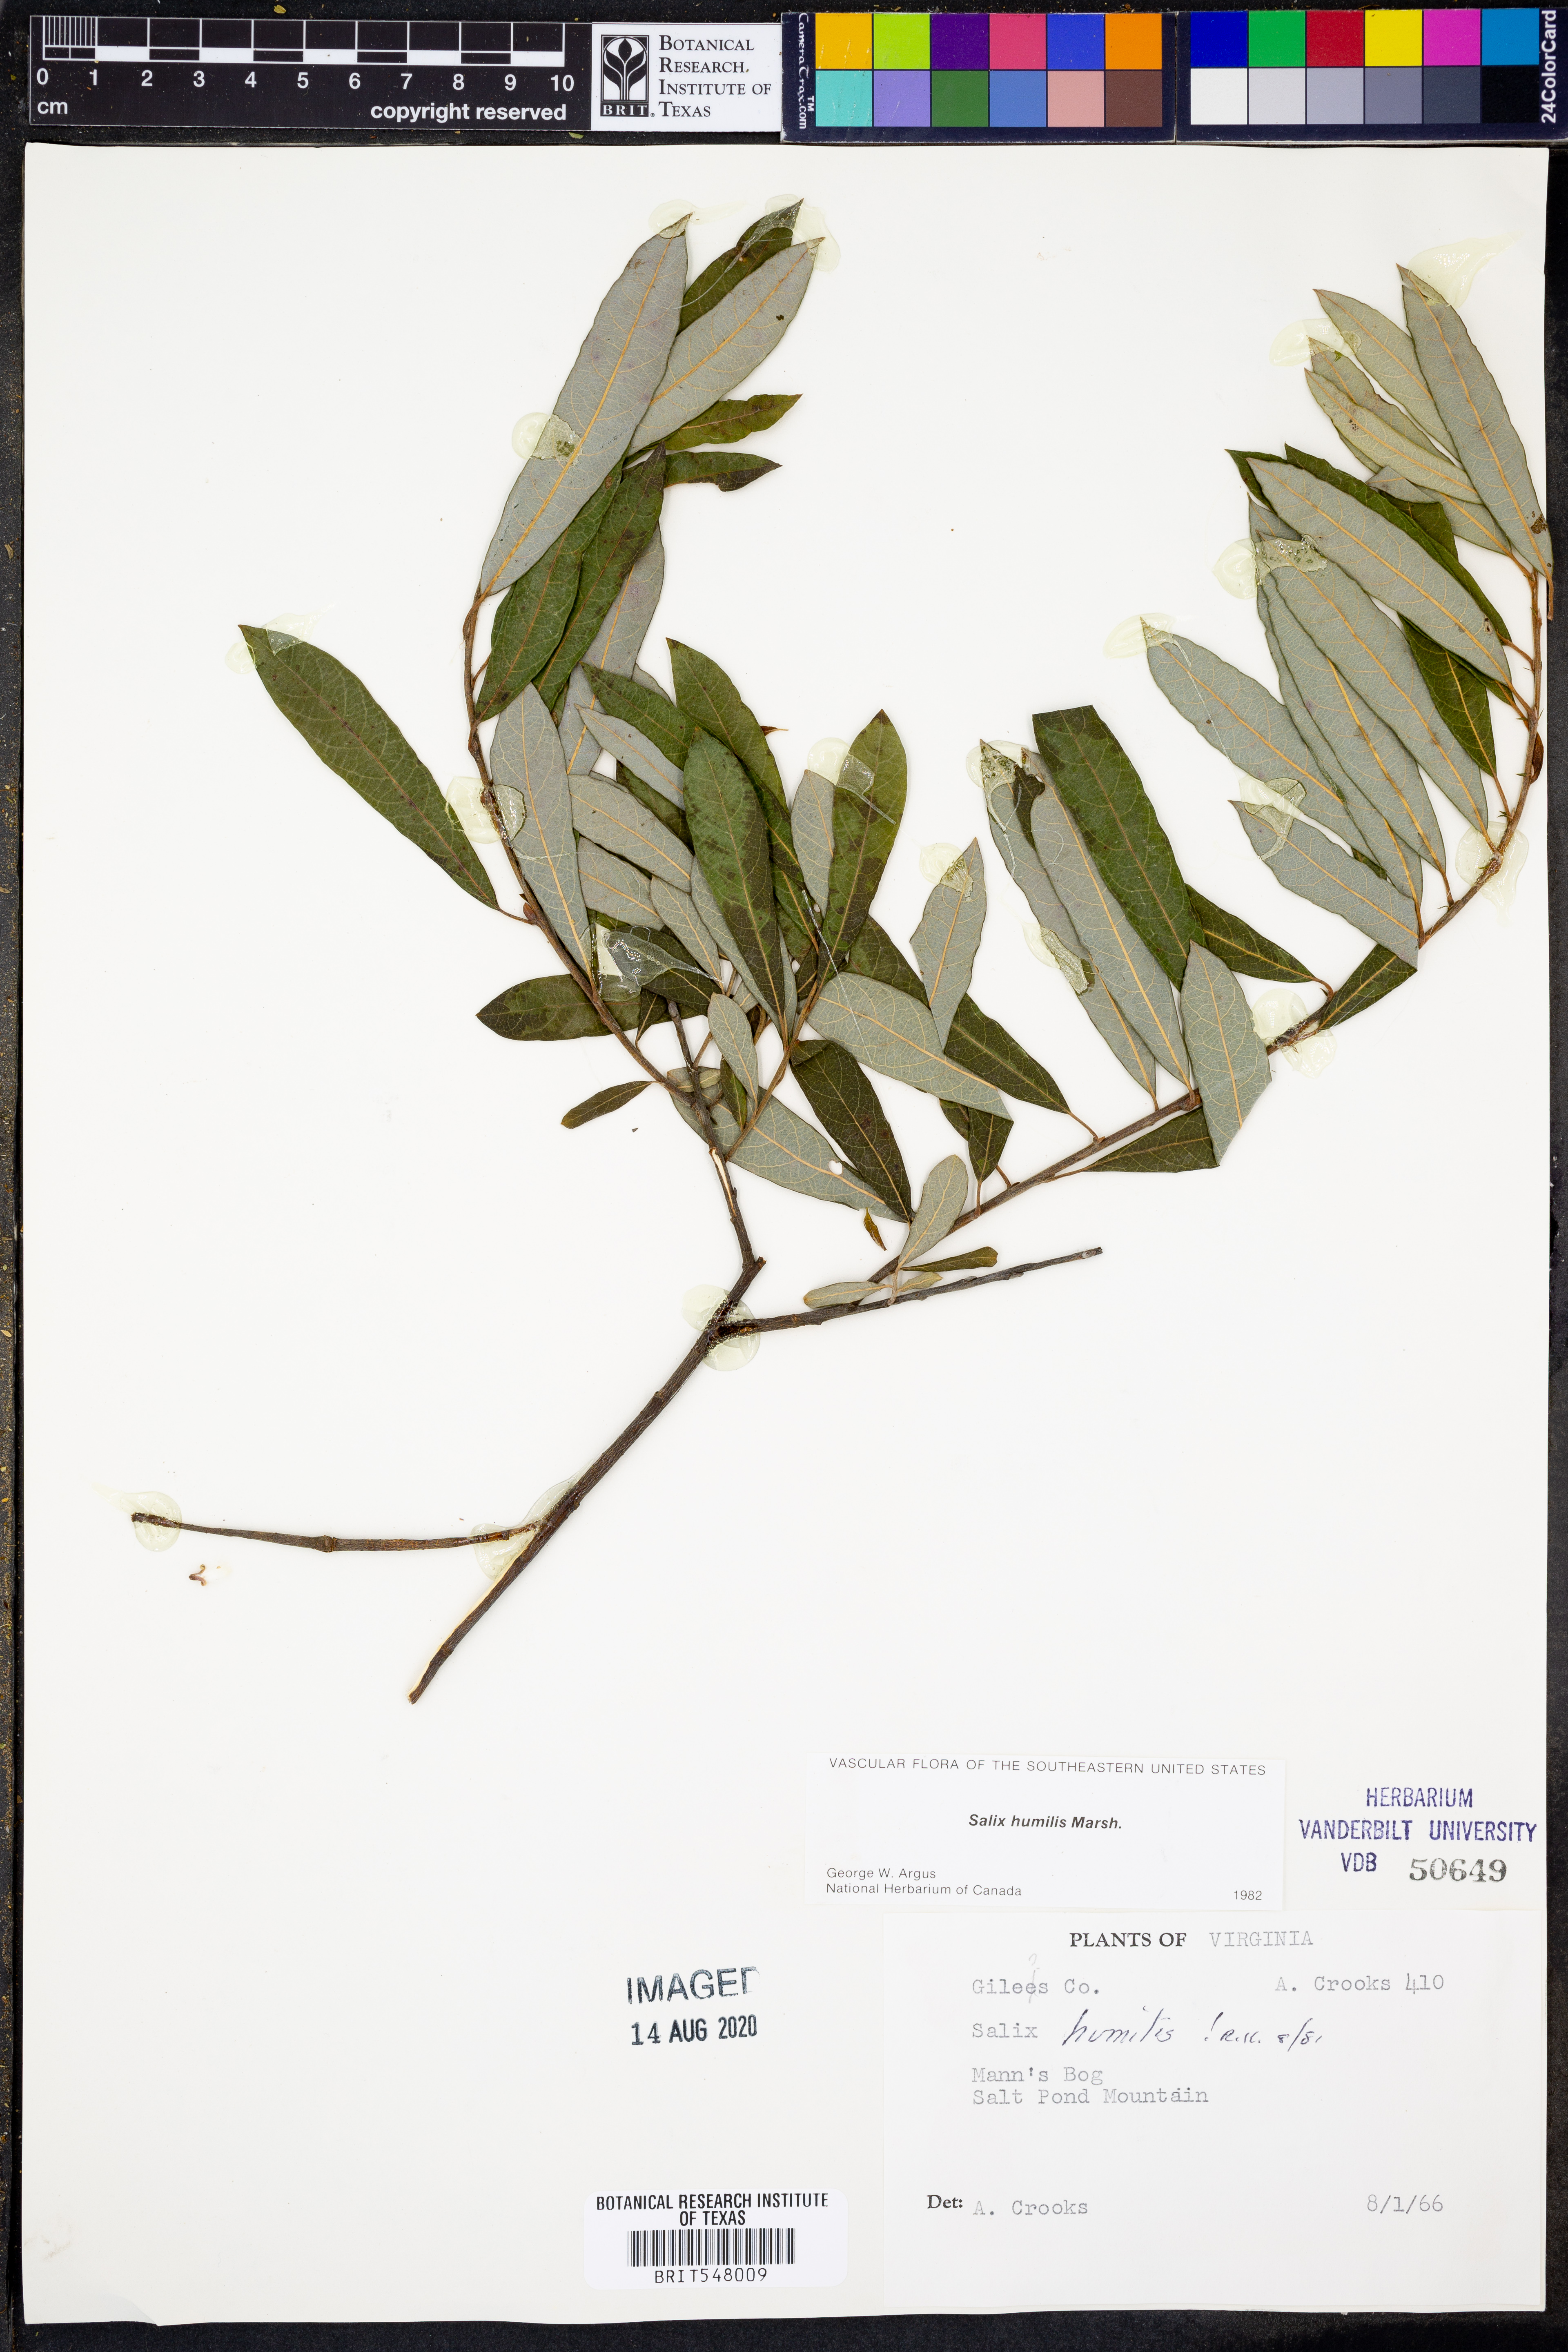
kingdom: Plantae
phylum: Tracheophyta
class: Magnoliopsida
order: Malpighiales
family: Salicaceae
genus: Salix
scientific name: Salix humilis
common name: Prairie willow
